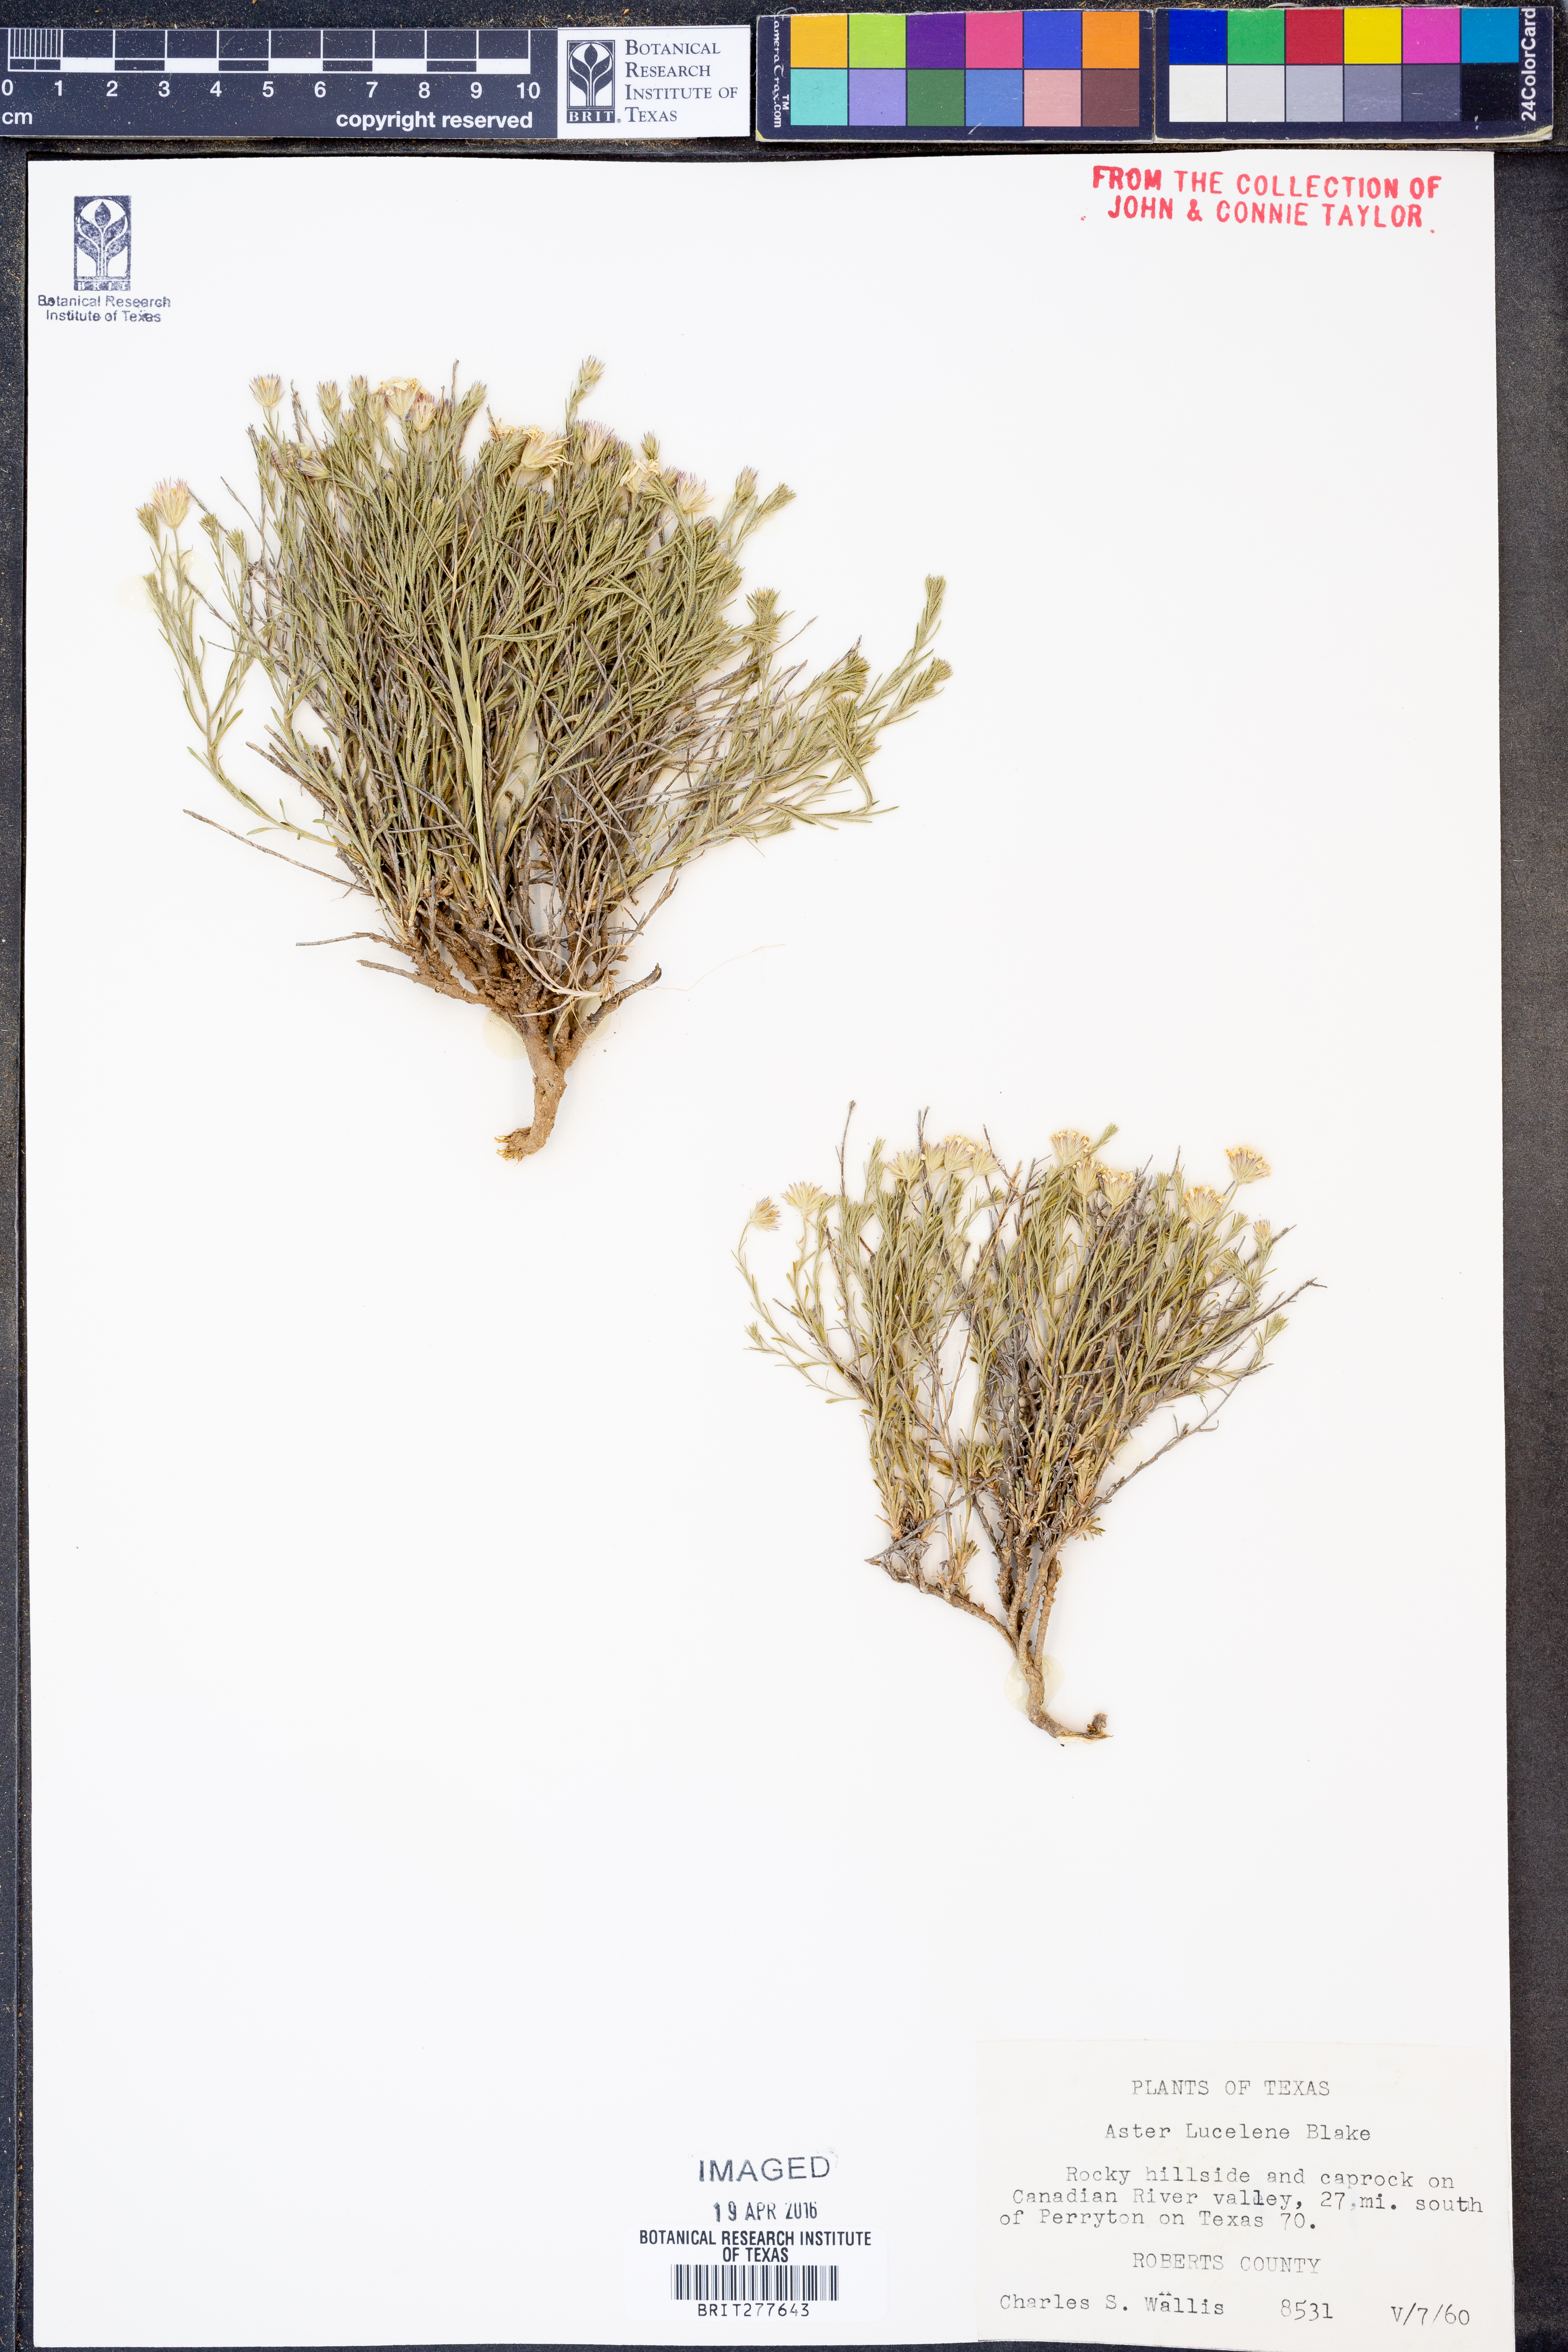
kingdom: Plantae
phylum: Tracheophyta
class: Magnoliopsida
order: Asterales
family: Asteraceae
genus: Chaetopappa
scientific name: Chaetopappa ericoides
